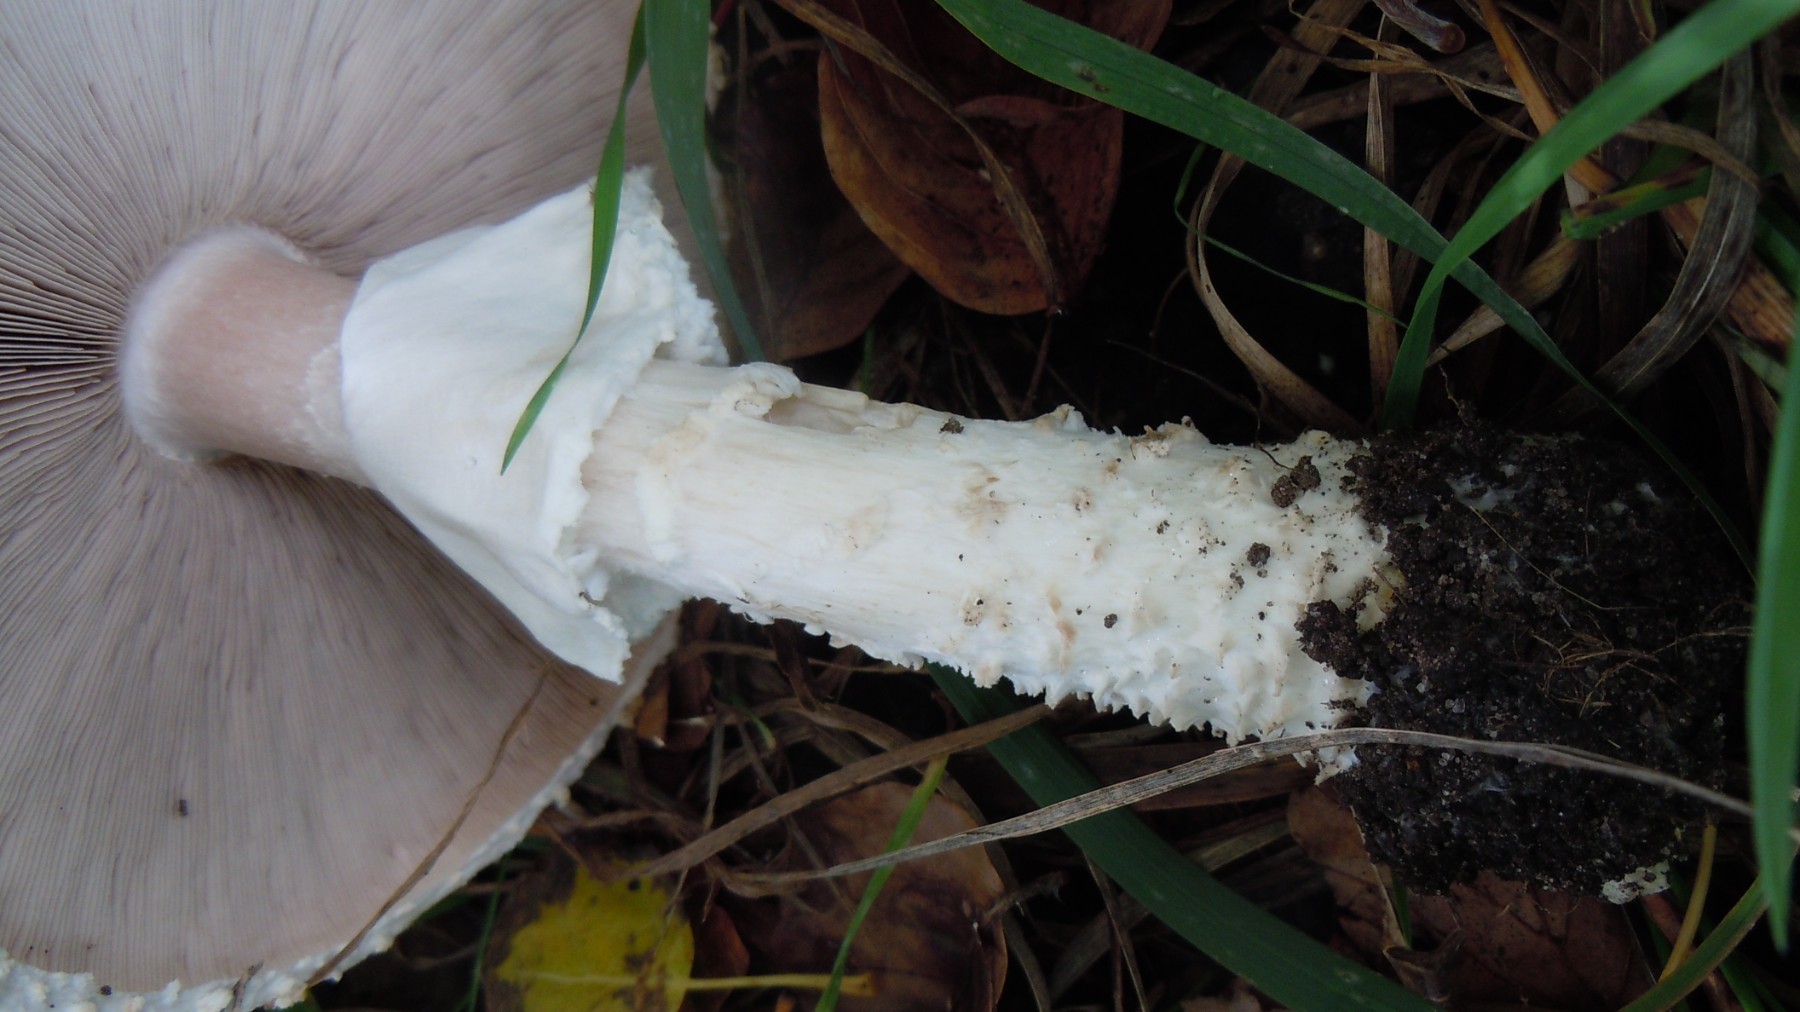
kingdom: Fungi
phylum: Basidiomycota
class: Agaricomycetes
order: Agaricales
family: Agaricaceae
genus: Agaricus
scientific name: Agaricus augustus
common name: prægtig champignon
